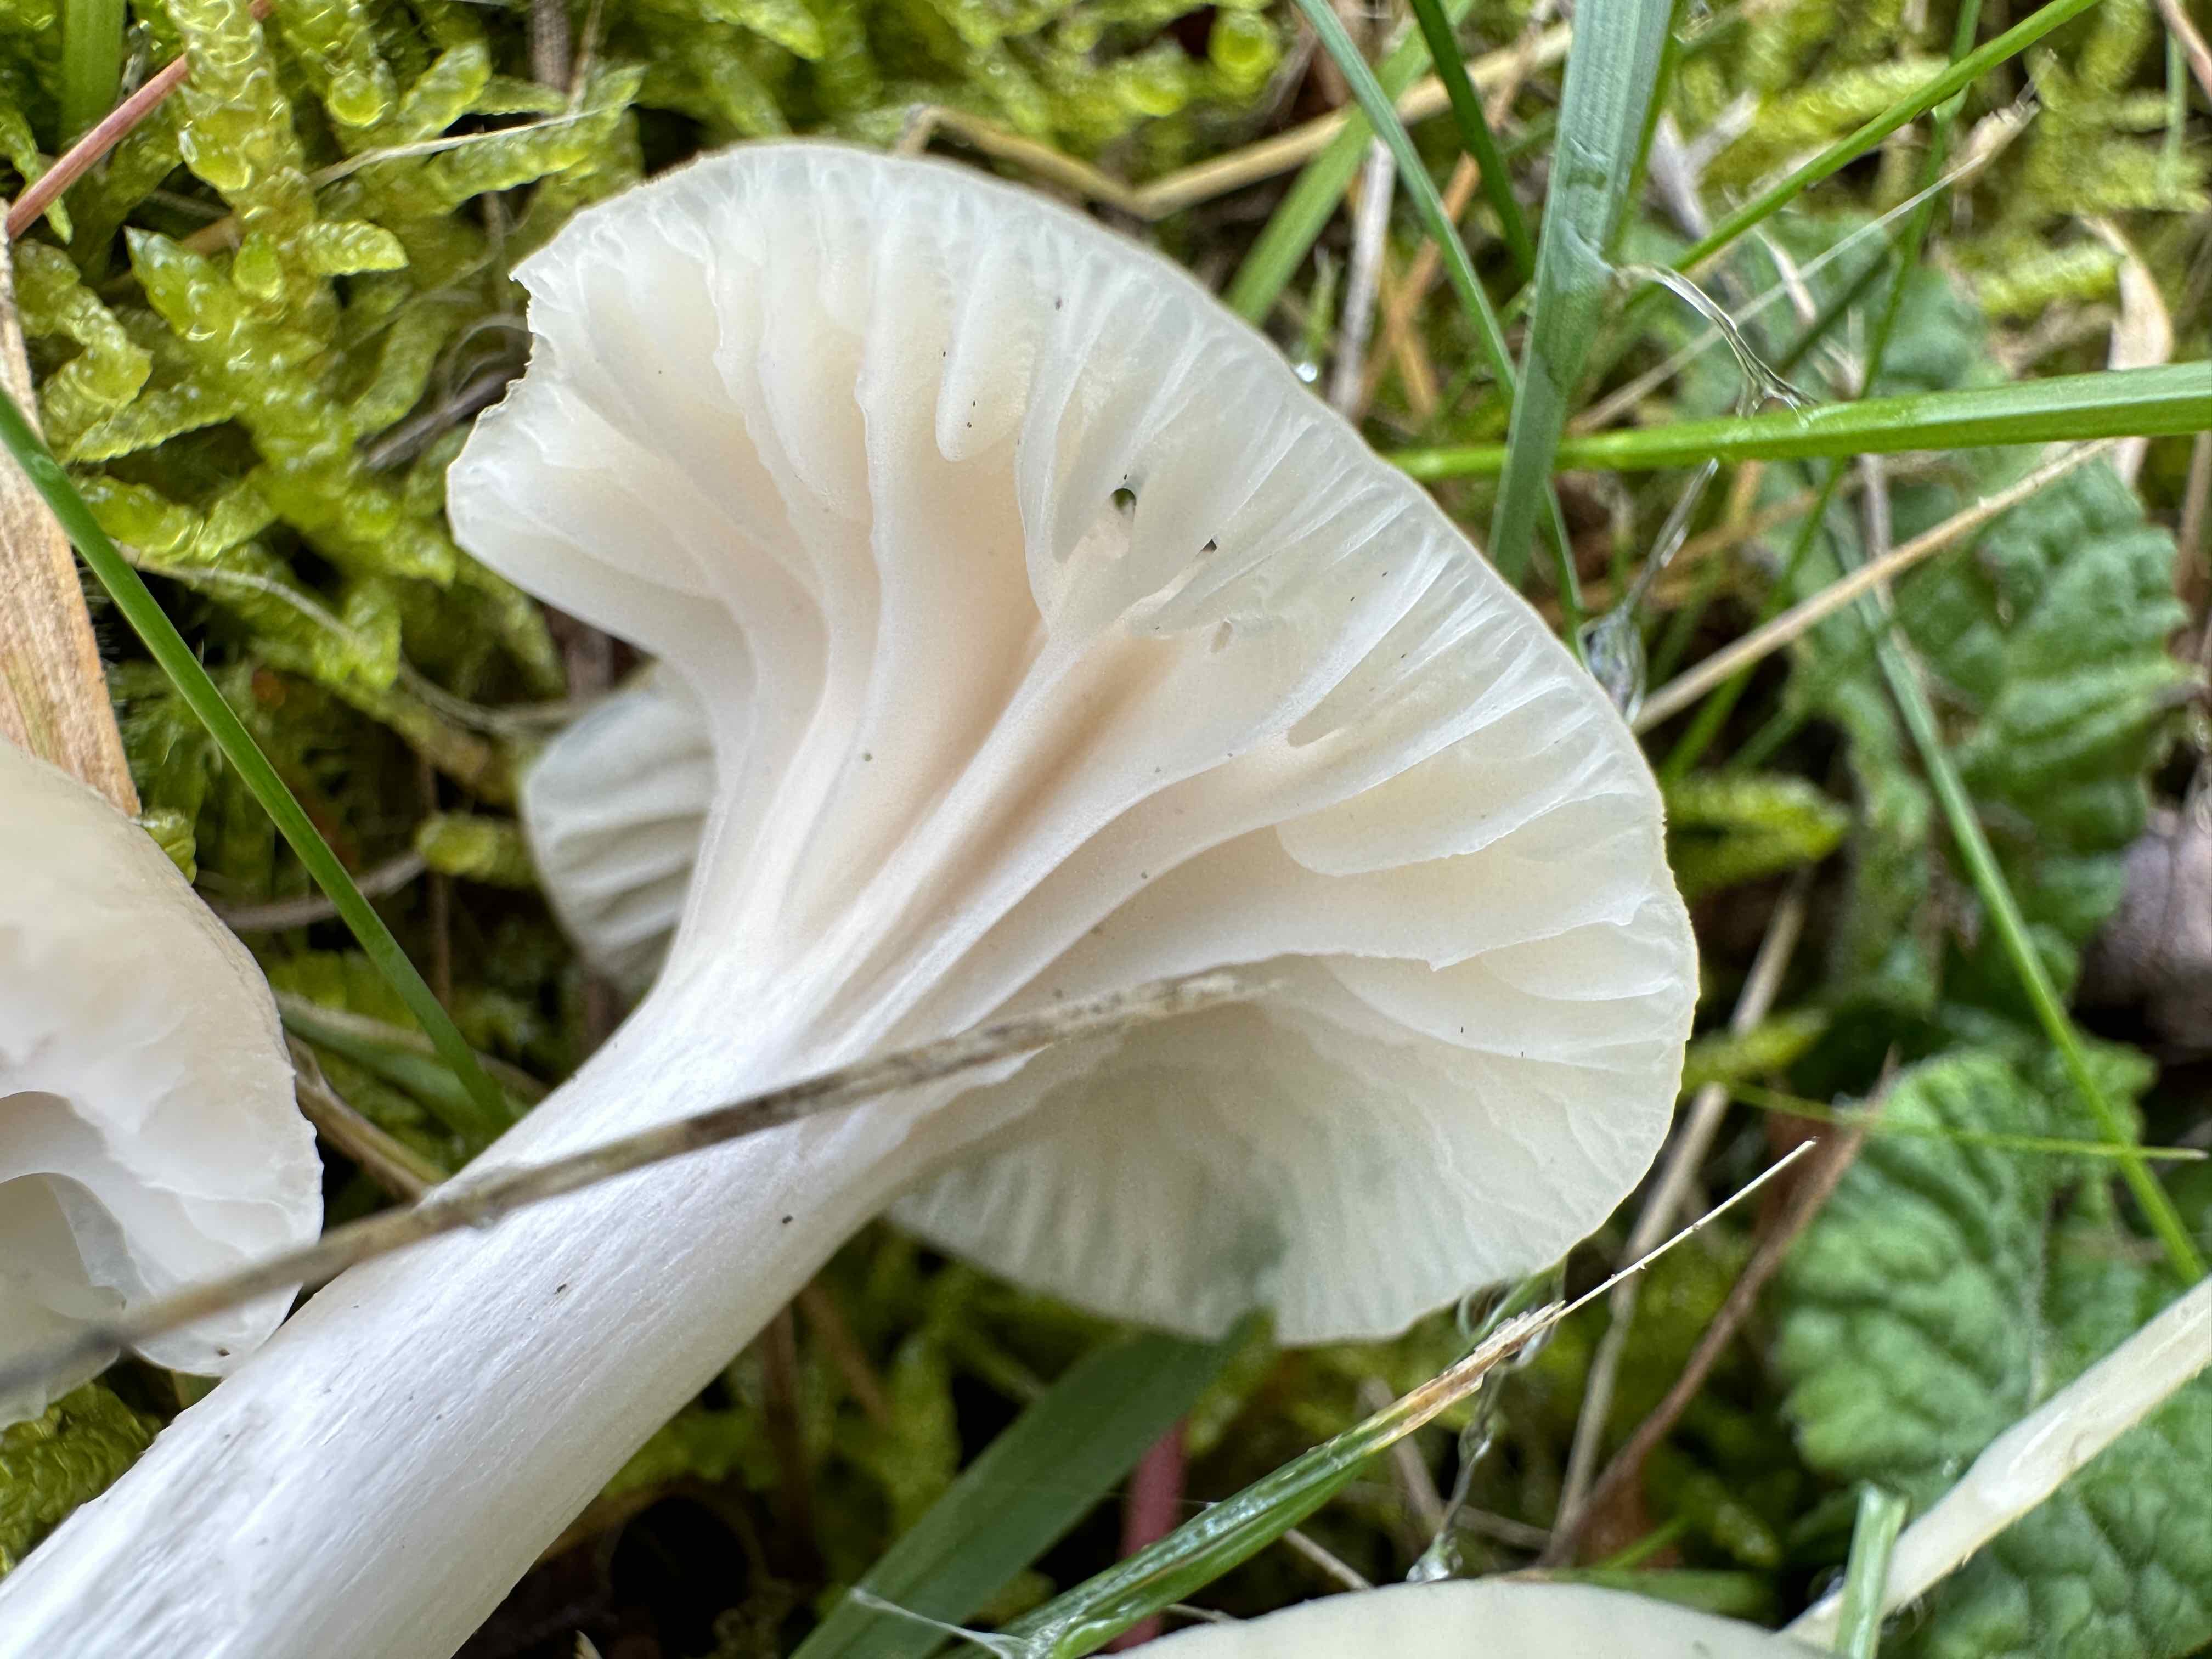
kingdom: Fungi
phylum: Basidiomycota
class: Agaricomycetes
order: Agaricales
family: Hygrophoraceae
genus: Cuphophyllus
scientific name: Cuphophyllus
